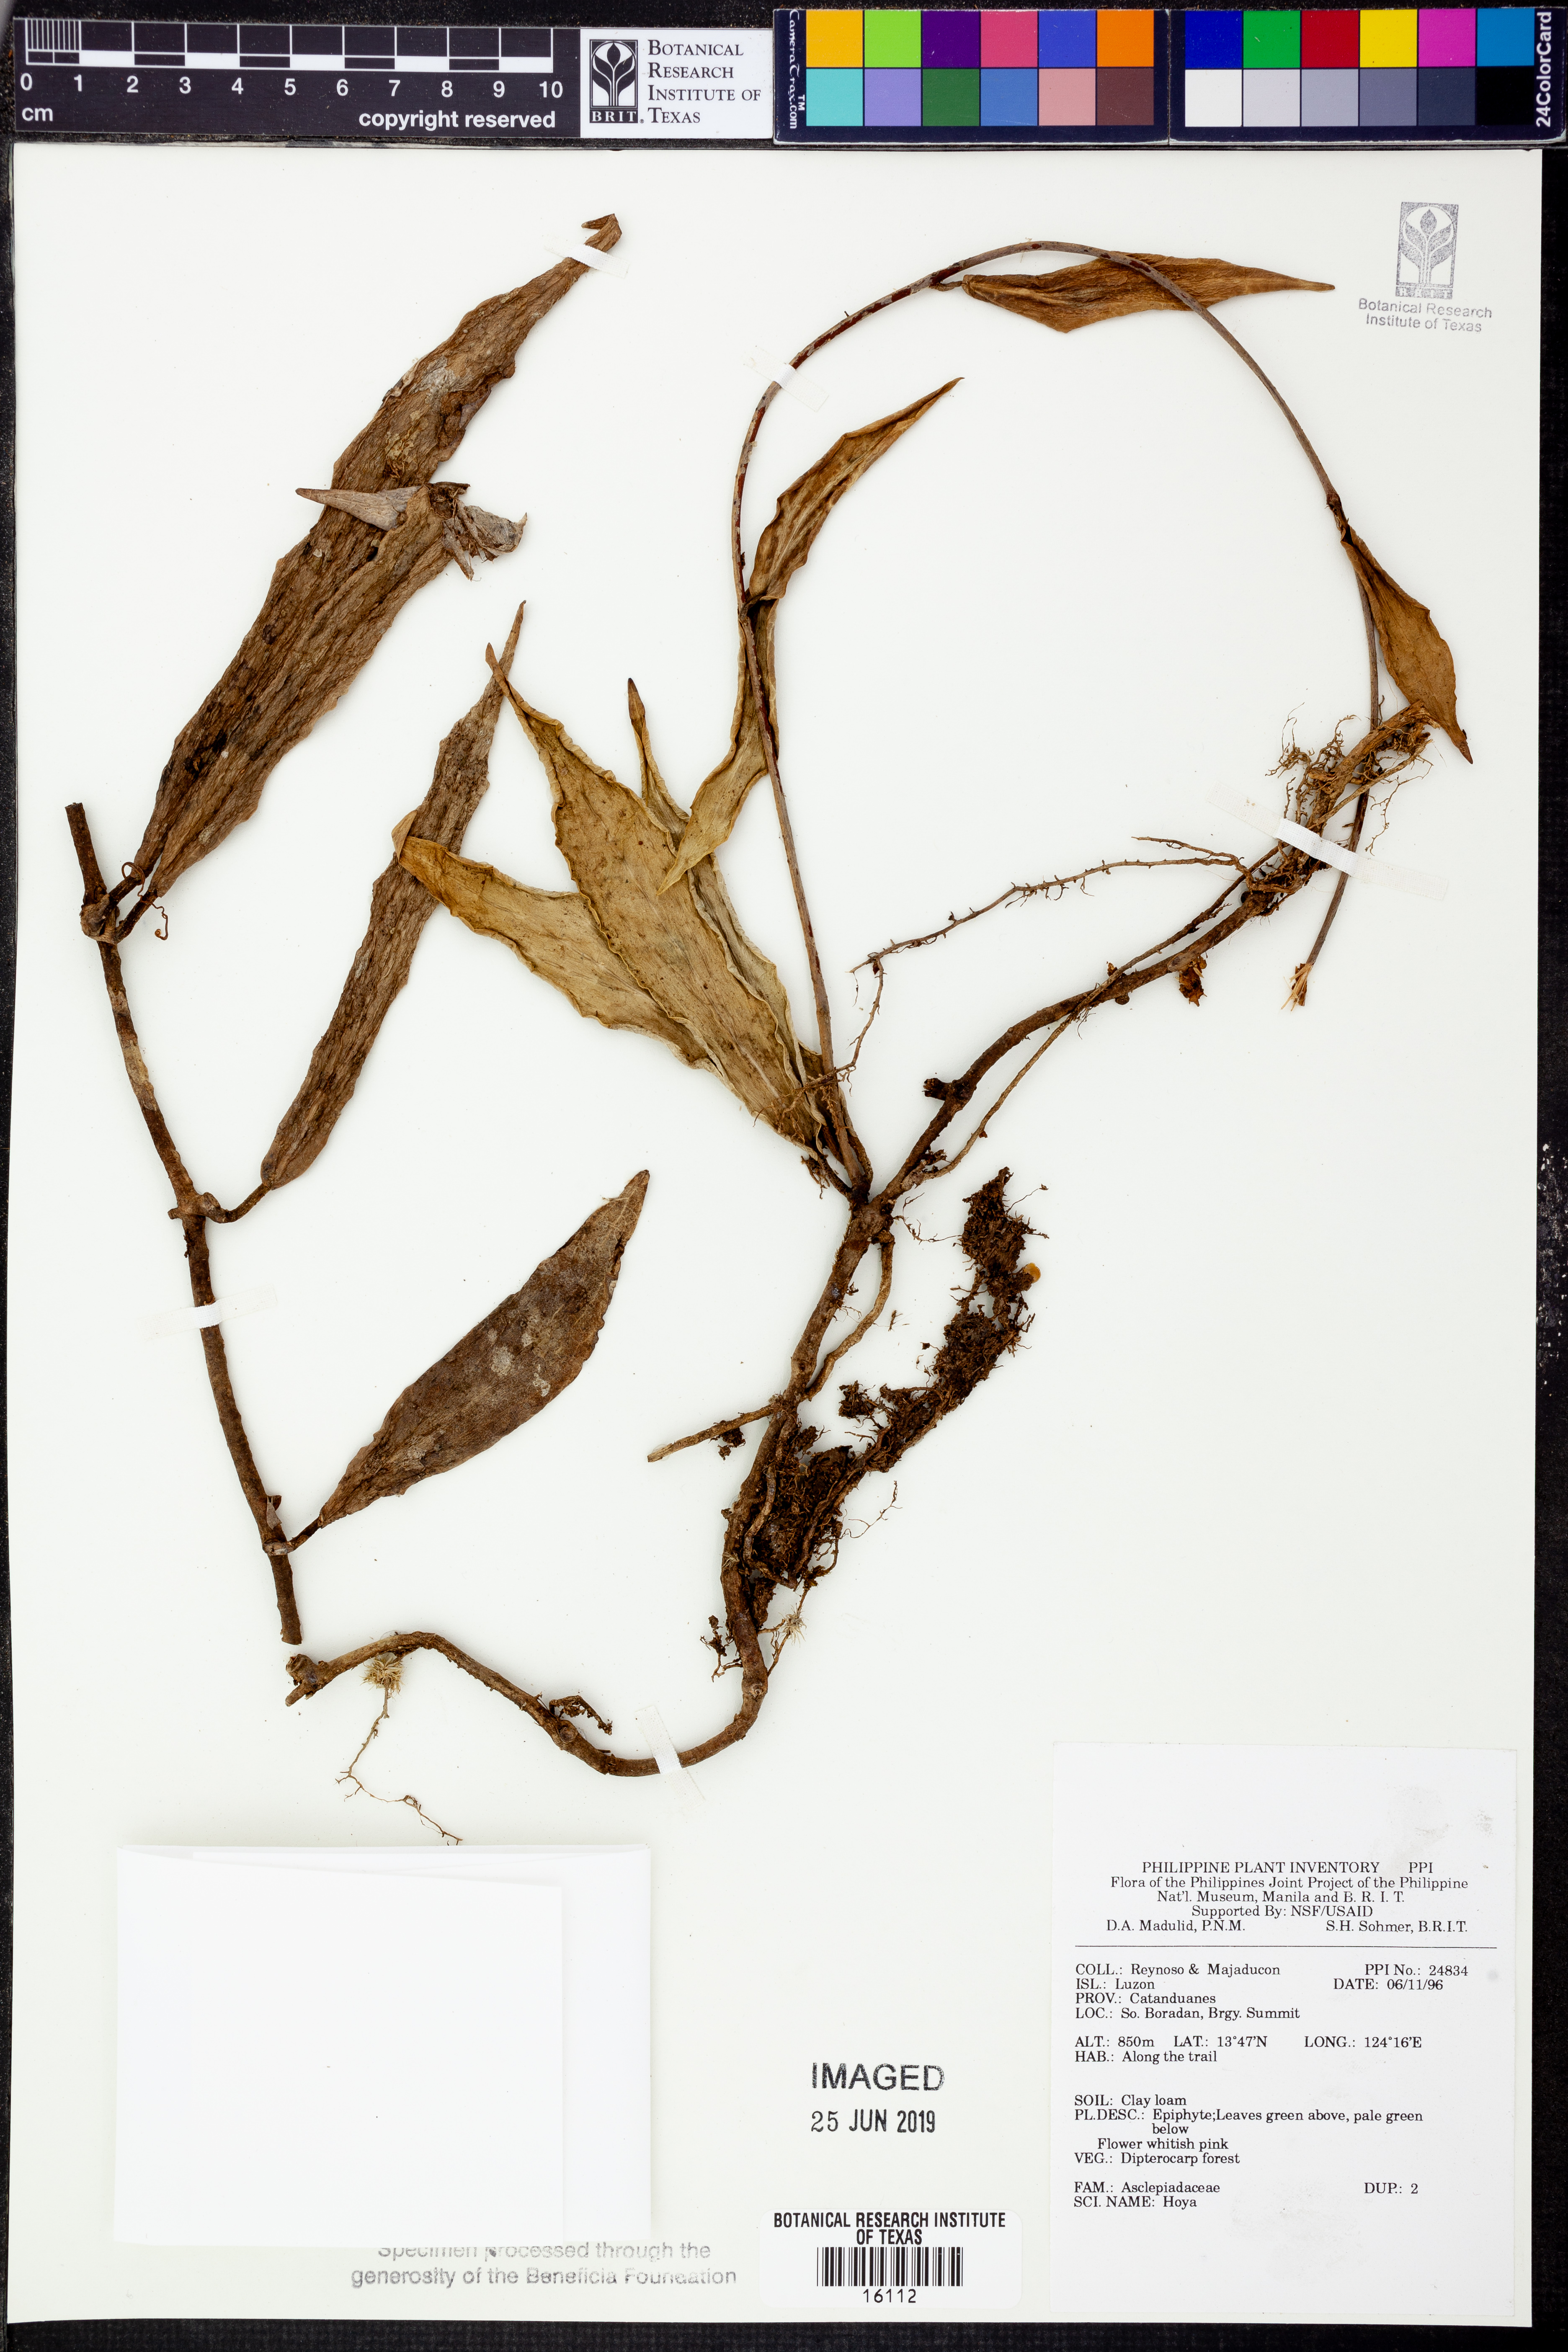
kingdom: Plantae
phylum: Tracheophyta
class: Magnoliopsida
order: Gentianales
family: Apocynaceae
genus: Hoya
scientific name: Hoya
